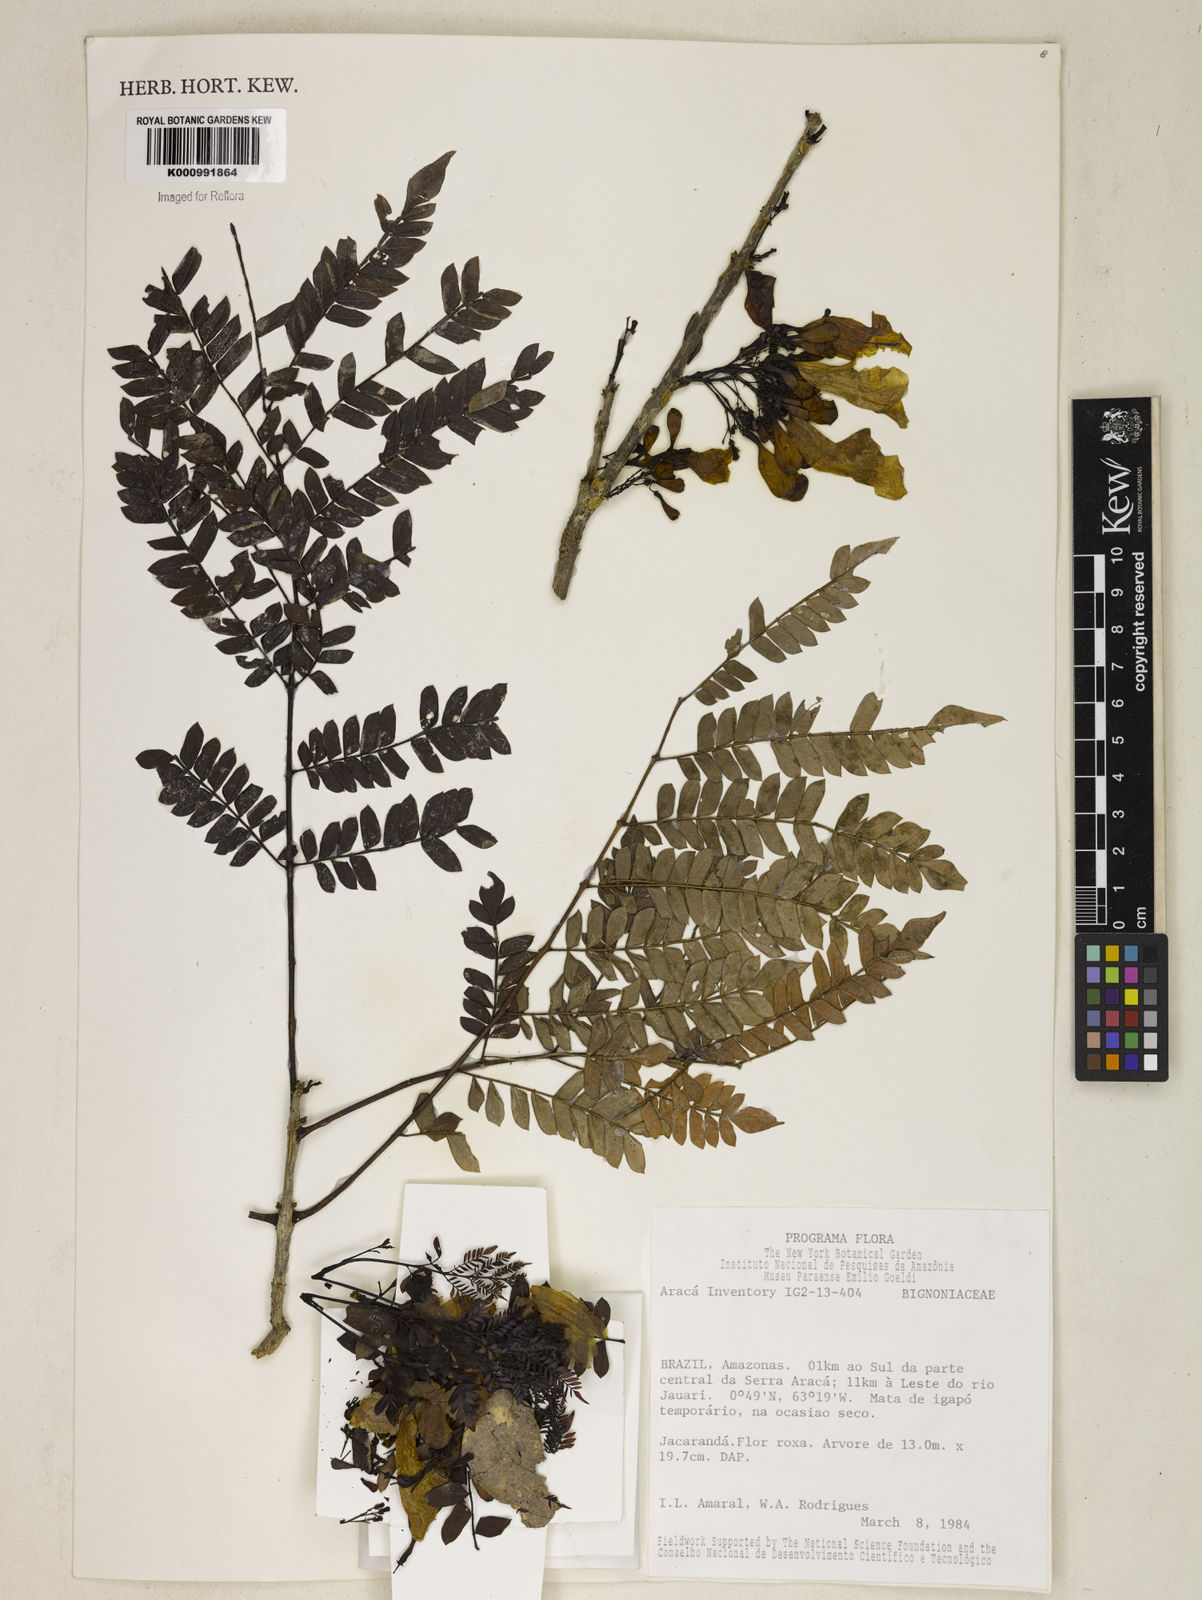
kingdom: Plantae
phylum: Tracheophyta
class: Magnoliopsida
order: Lamiales
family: Bignoniaceae
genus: Jacaranda
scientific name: Jacaranda
